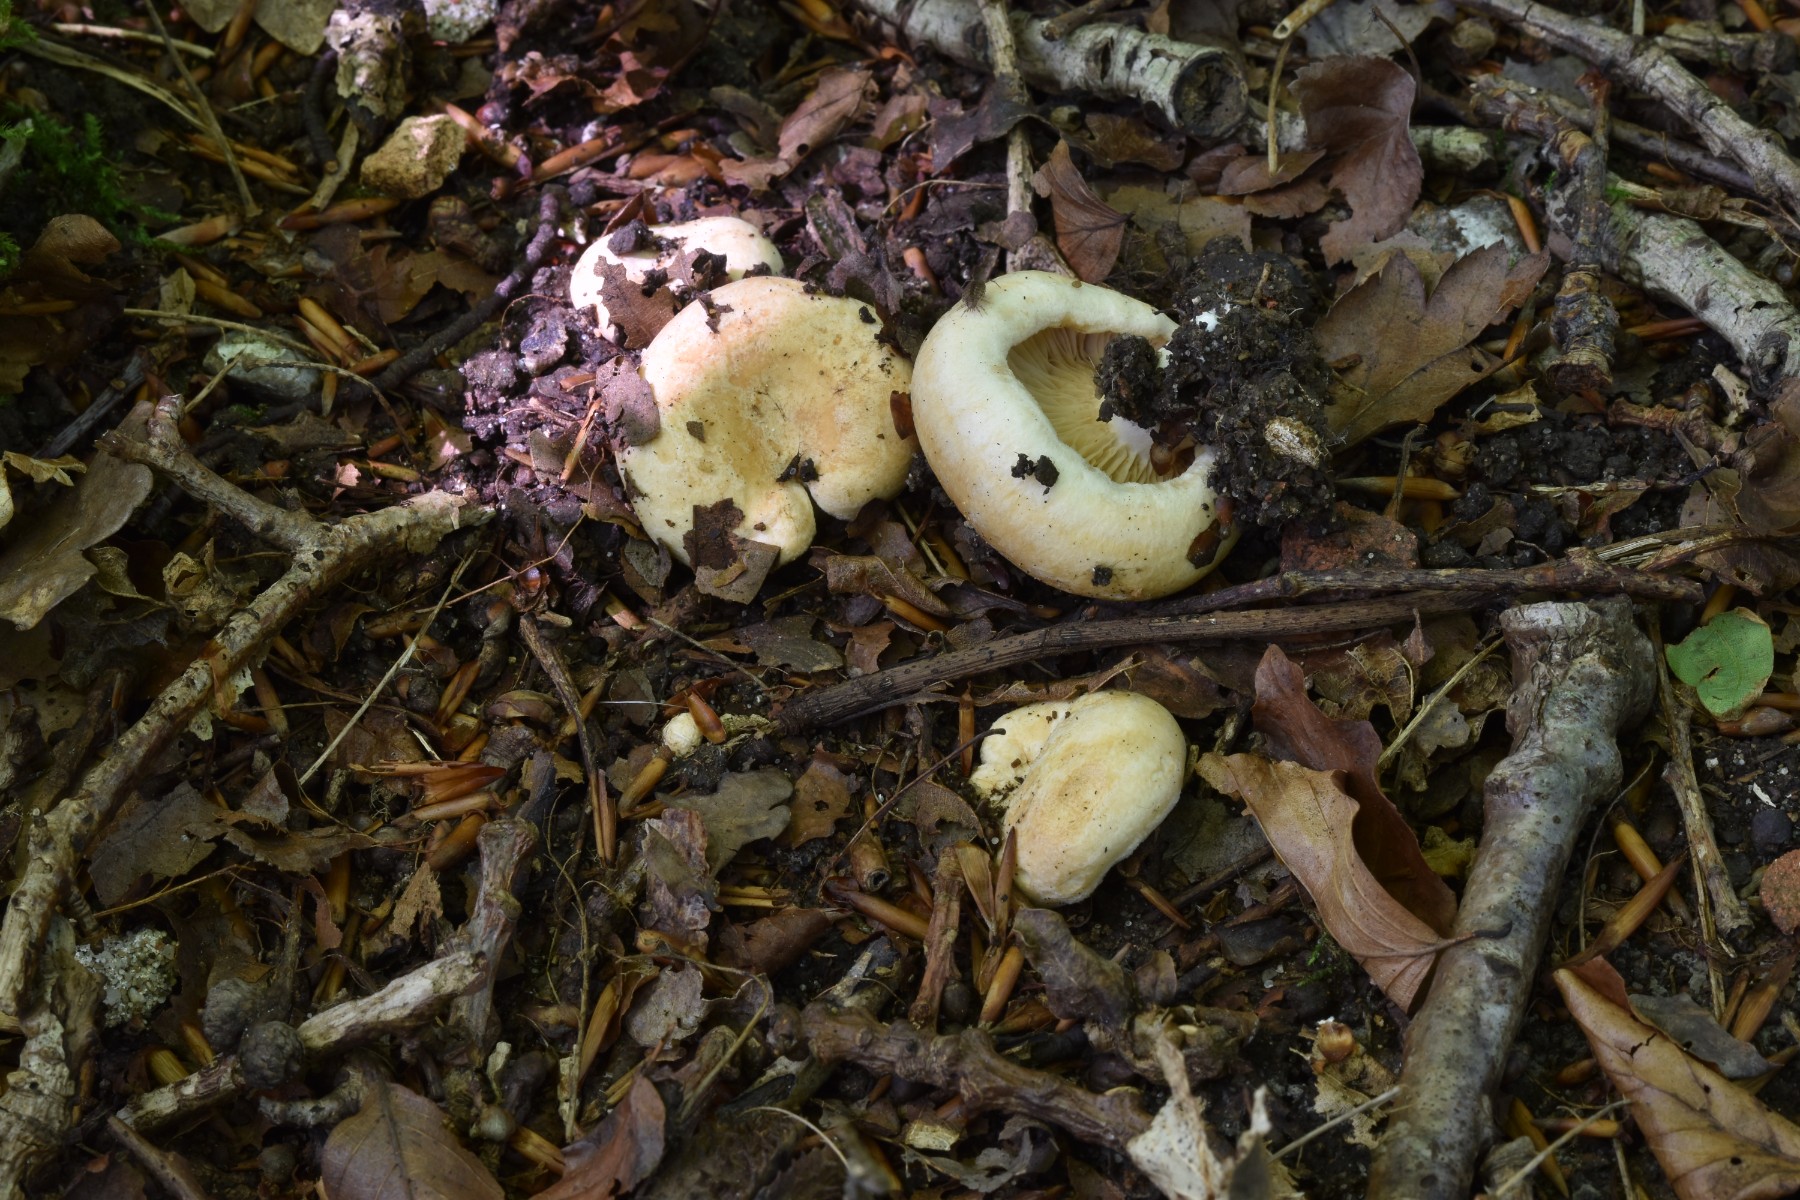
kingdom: Fungi
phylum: Basidiomycota
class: Agaricomycetes
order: Russulales
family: Russulaceae
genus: Lactarius
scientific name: Lactarius acerrimus
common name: brændende mælkehat
